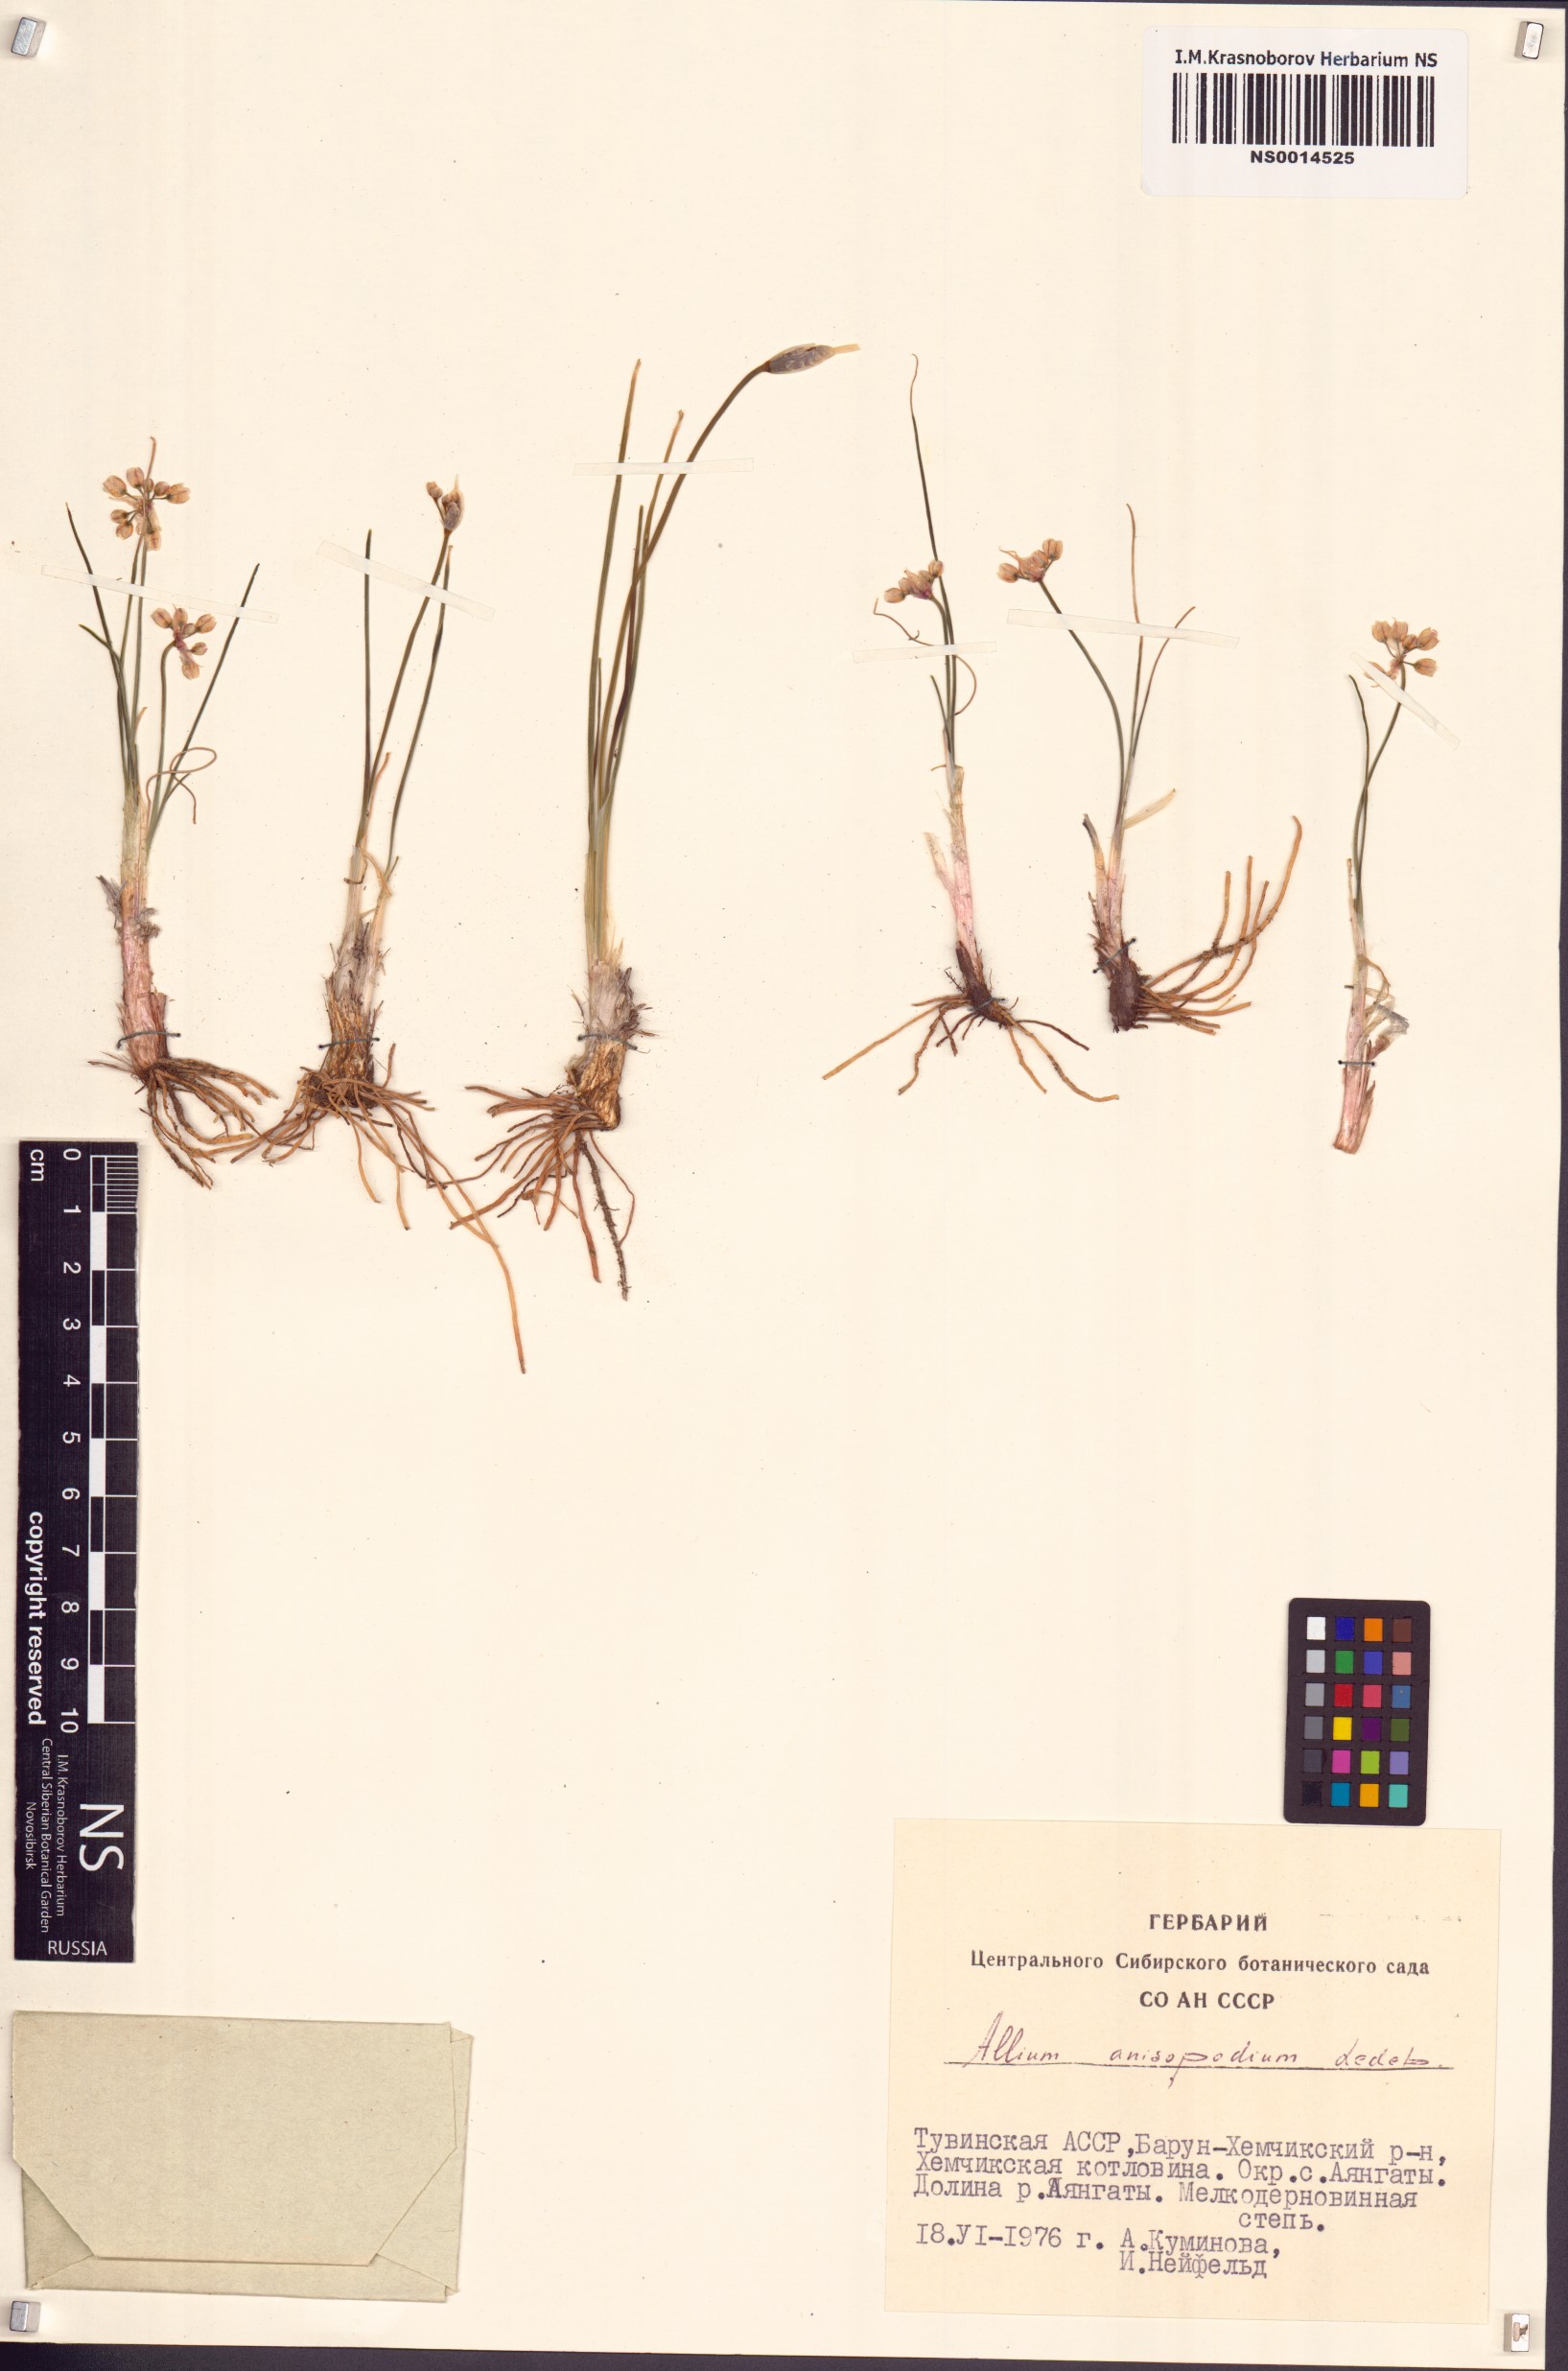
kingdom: Plantae
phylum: Tracheophyta
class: Liliopsida
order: Asparagales
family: Amaryllidaceae
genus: Allium
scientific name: Allium anisopodium
